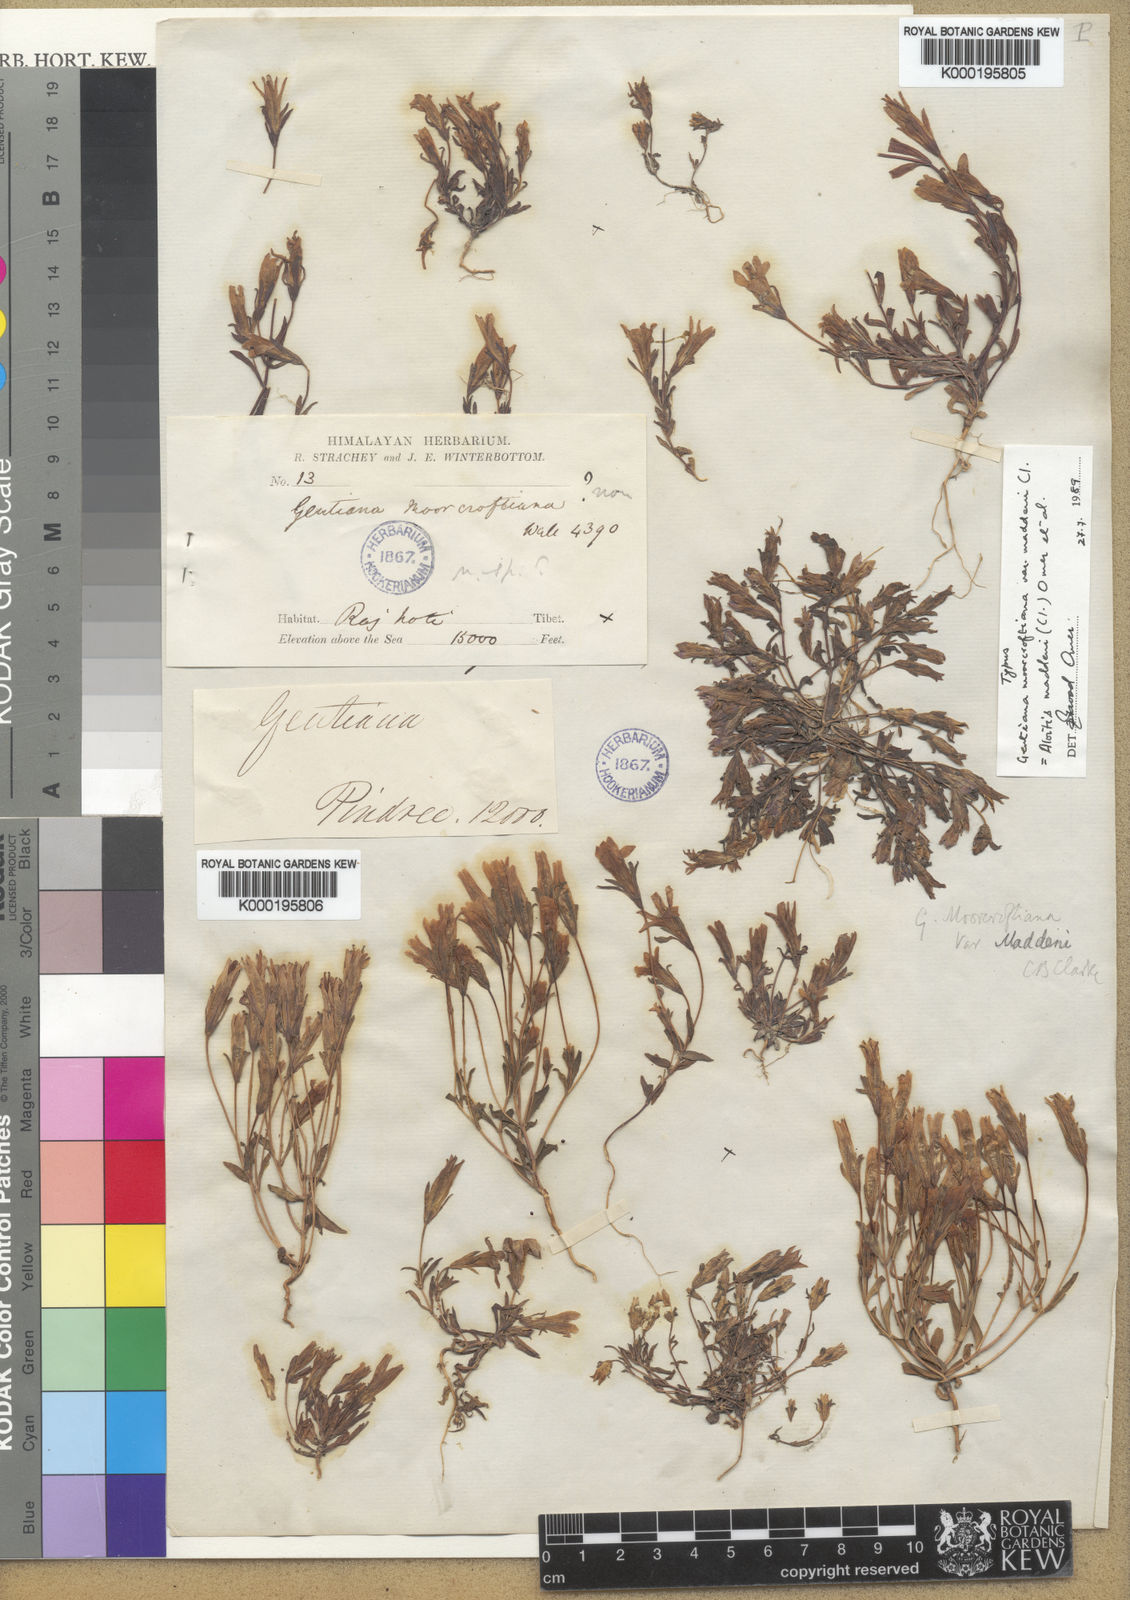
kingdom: Plantae
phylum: Tracheophyta
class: Magnoliopsida
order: Gentianales
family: Gentianaceae
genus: Gentiana
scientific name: Gentiana
